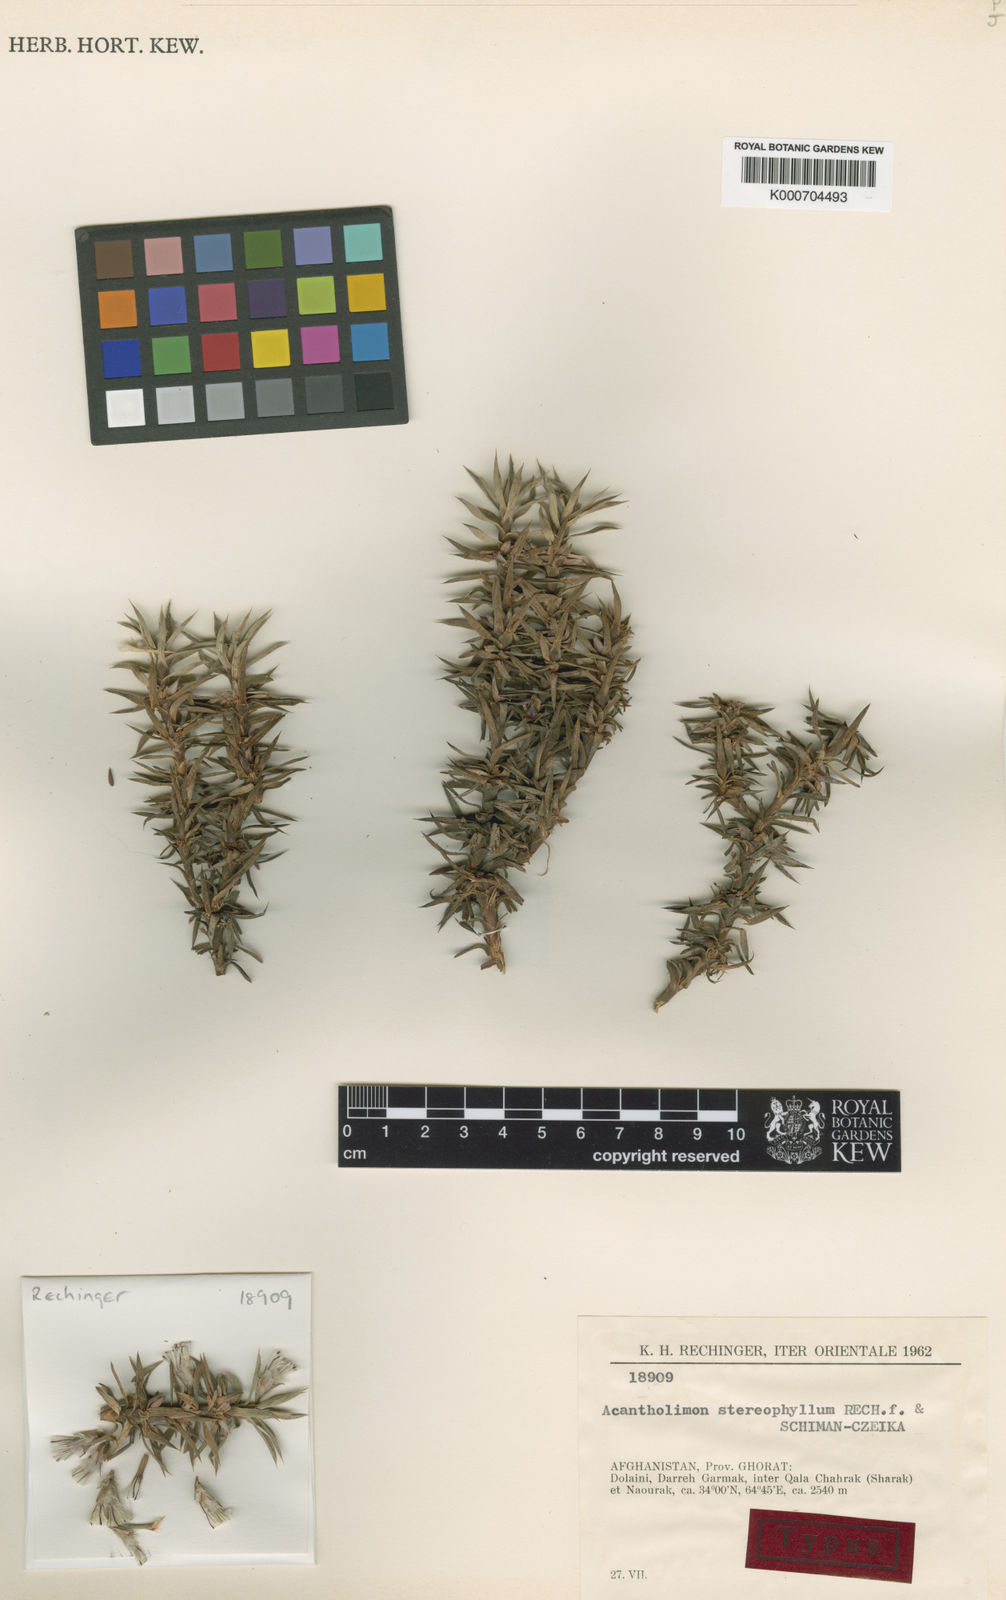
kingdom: Plantae
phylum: Tracheophyta
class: Magnoliopsida
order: Caryophyllales
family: Plumbaginaceae
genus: Acantholimon
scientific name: Acantholimon stereophyllum
